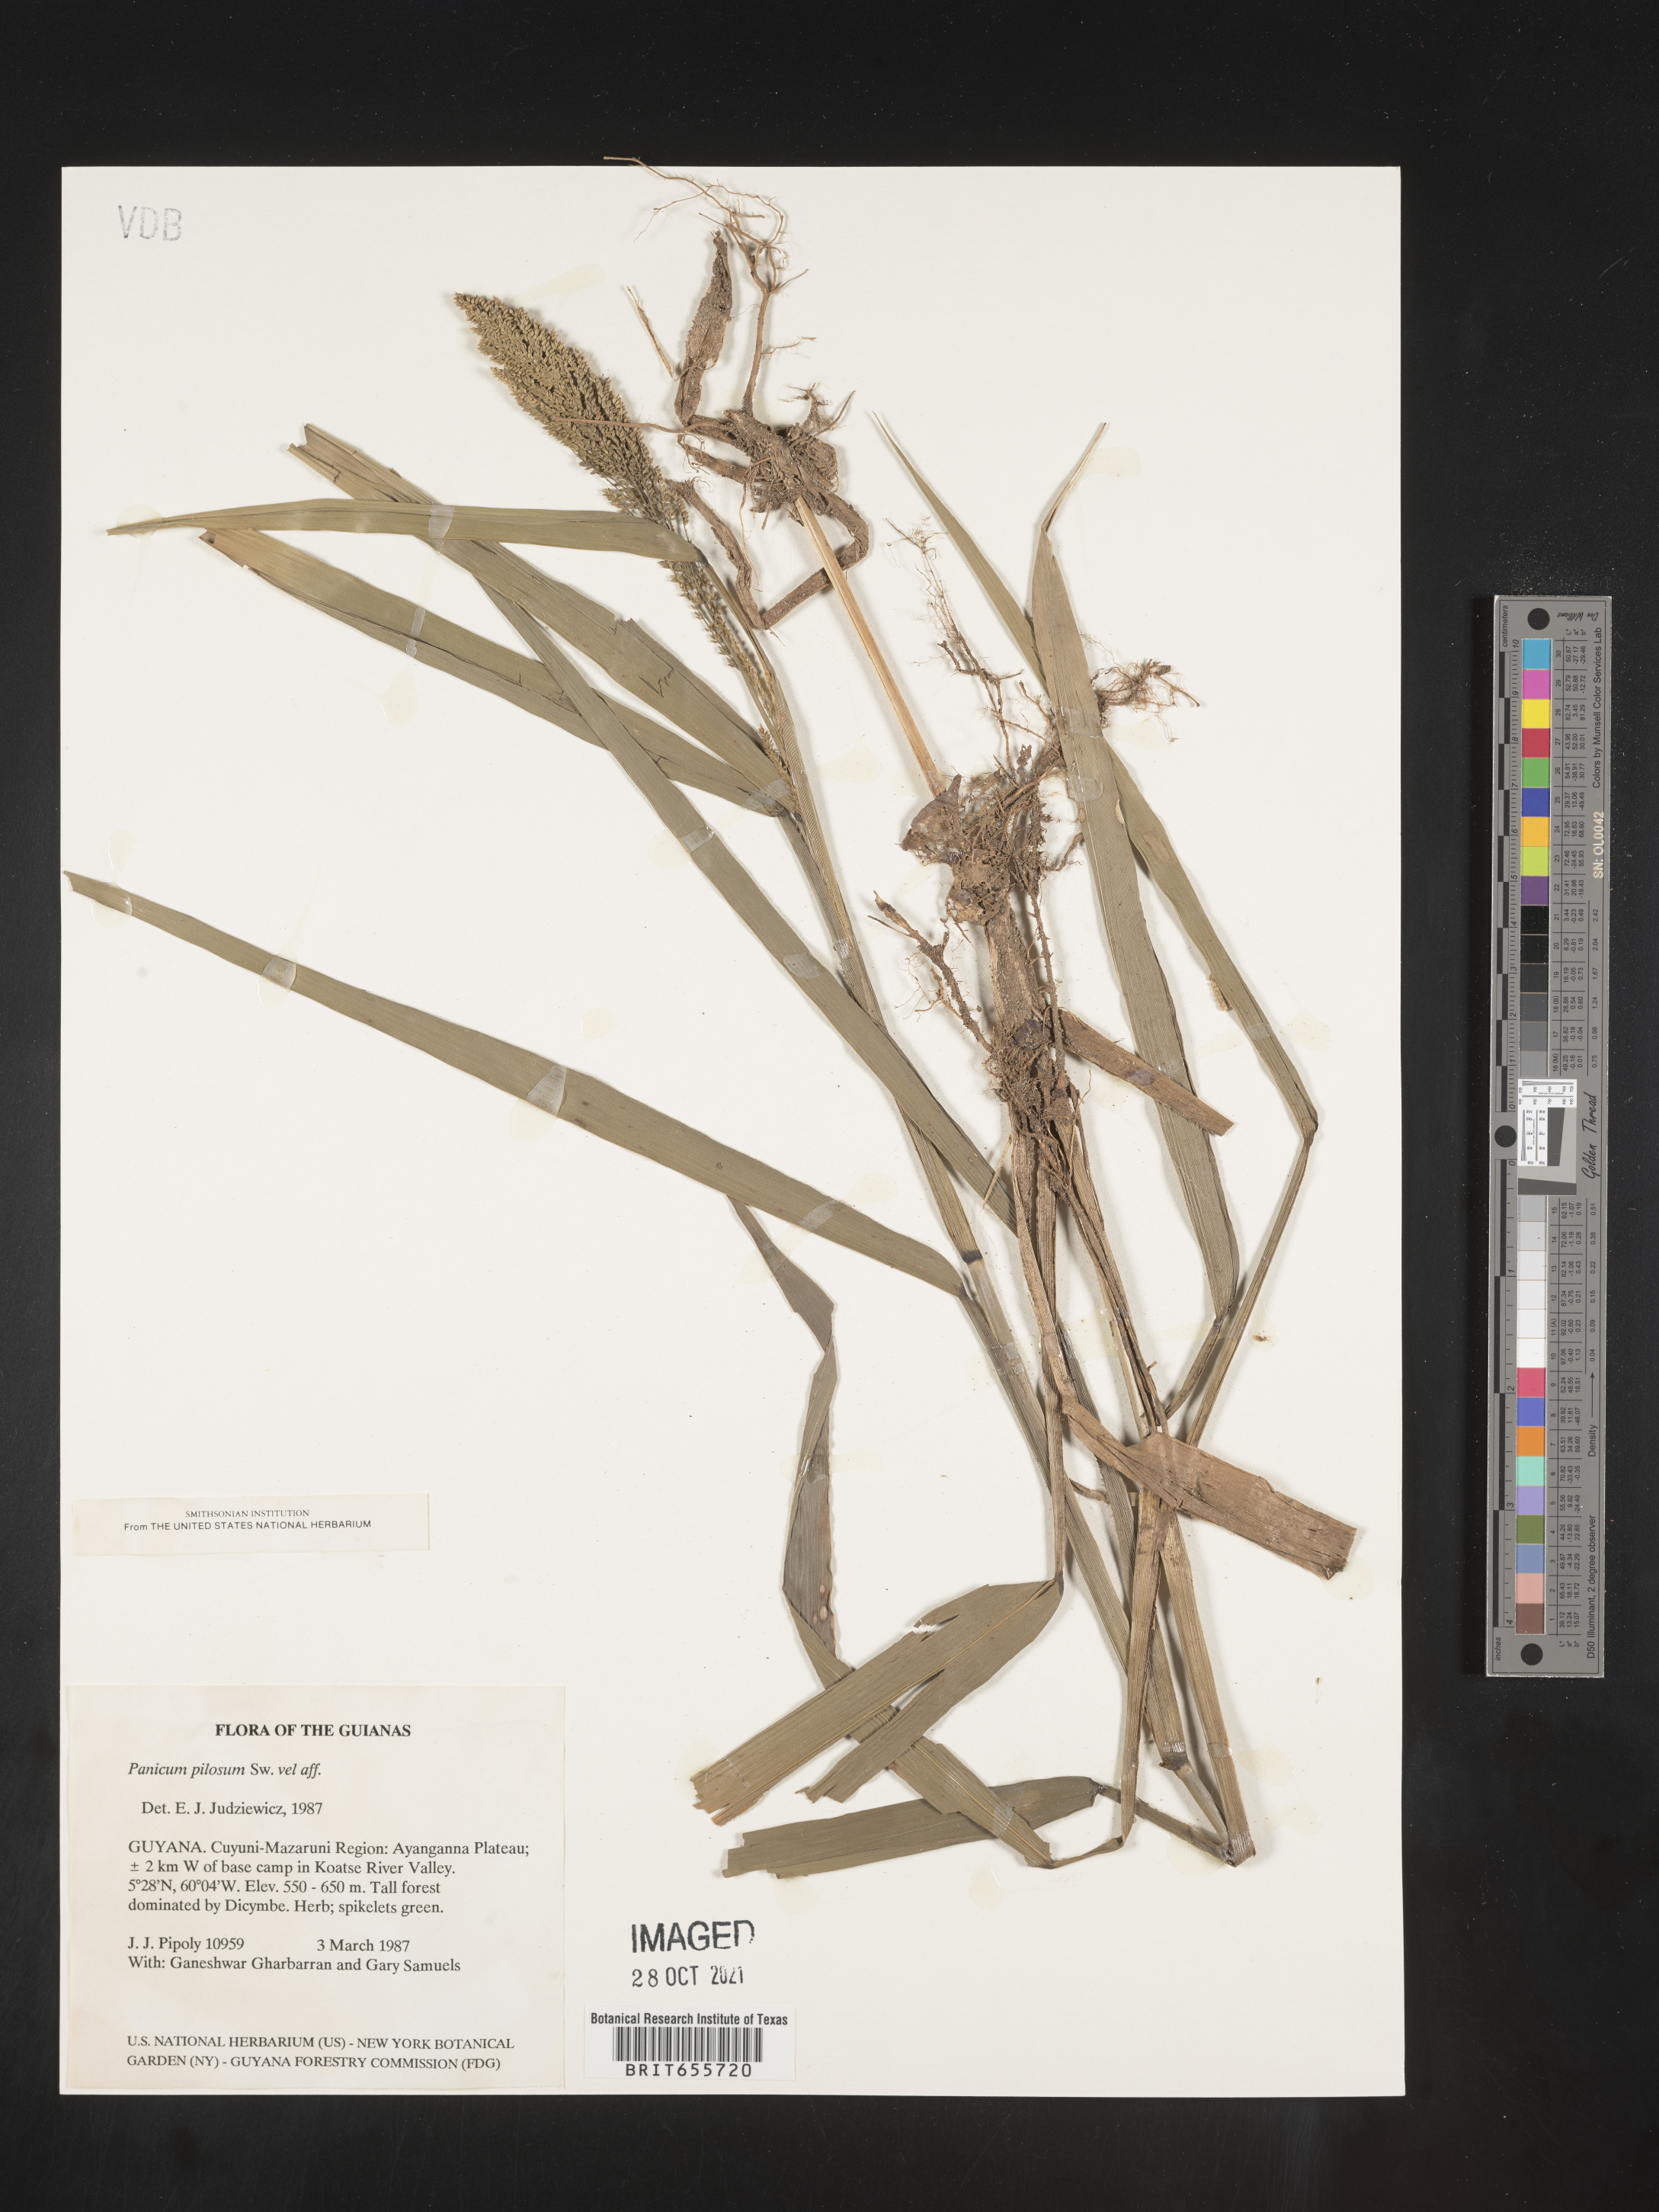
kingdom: Plantae
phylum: Tracheophyta
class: Liliopsida
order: Poales
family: Poaceae
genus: Panicum
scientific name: Panicum
